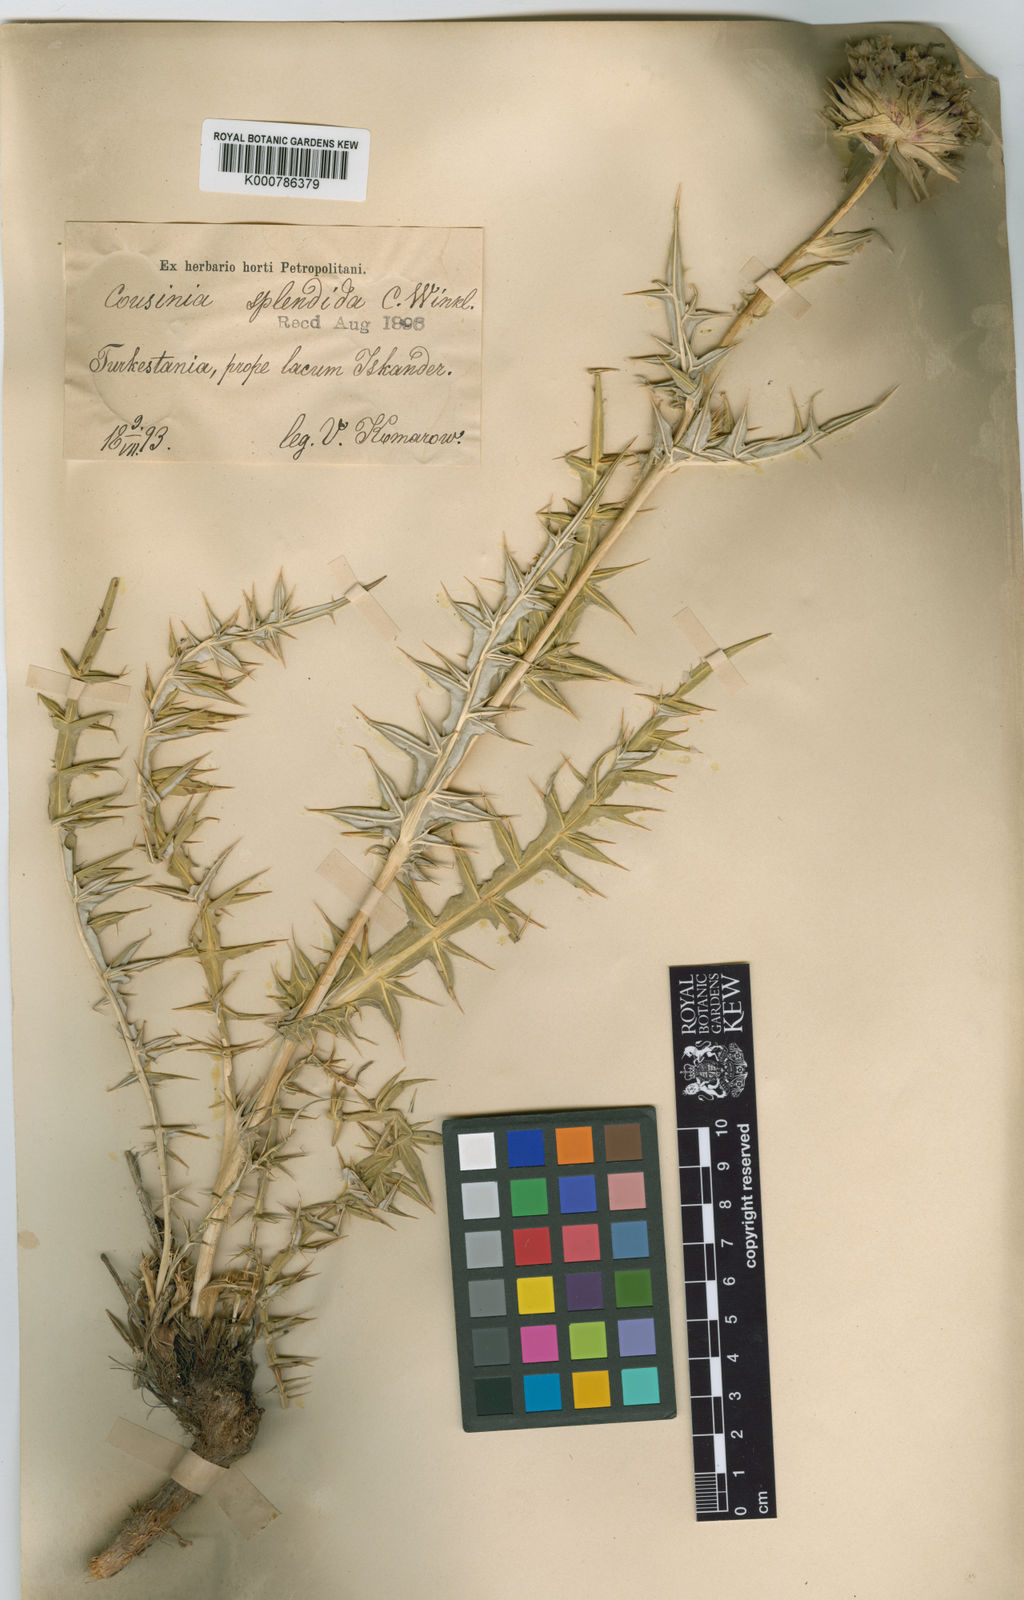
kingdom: Plantae
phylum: Tracheophyta
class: Magnoliopsida
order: Asterales
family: Asteraceae
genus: Cousinia
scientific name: Cousinia splendida
